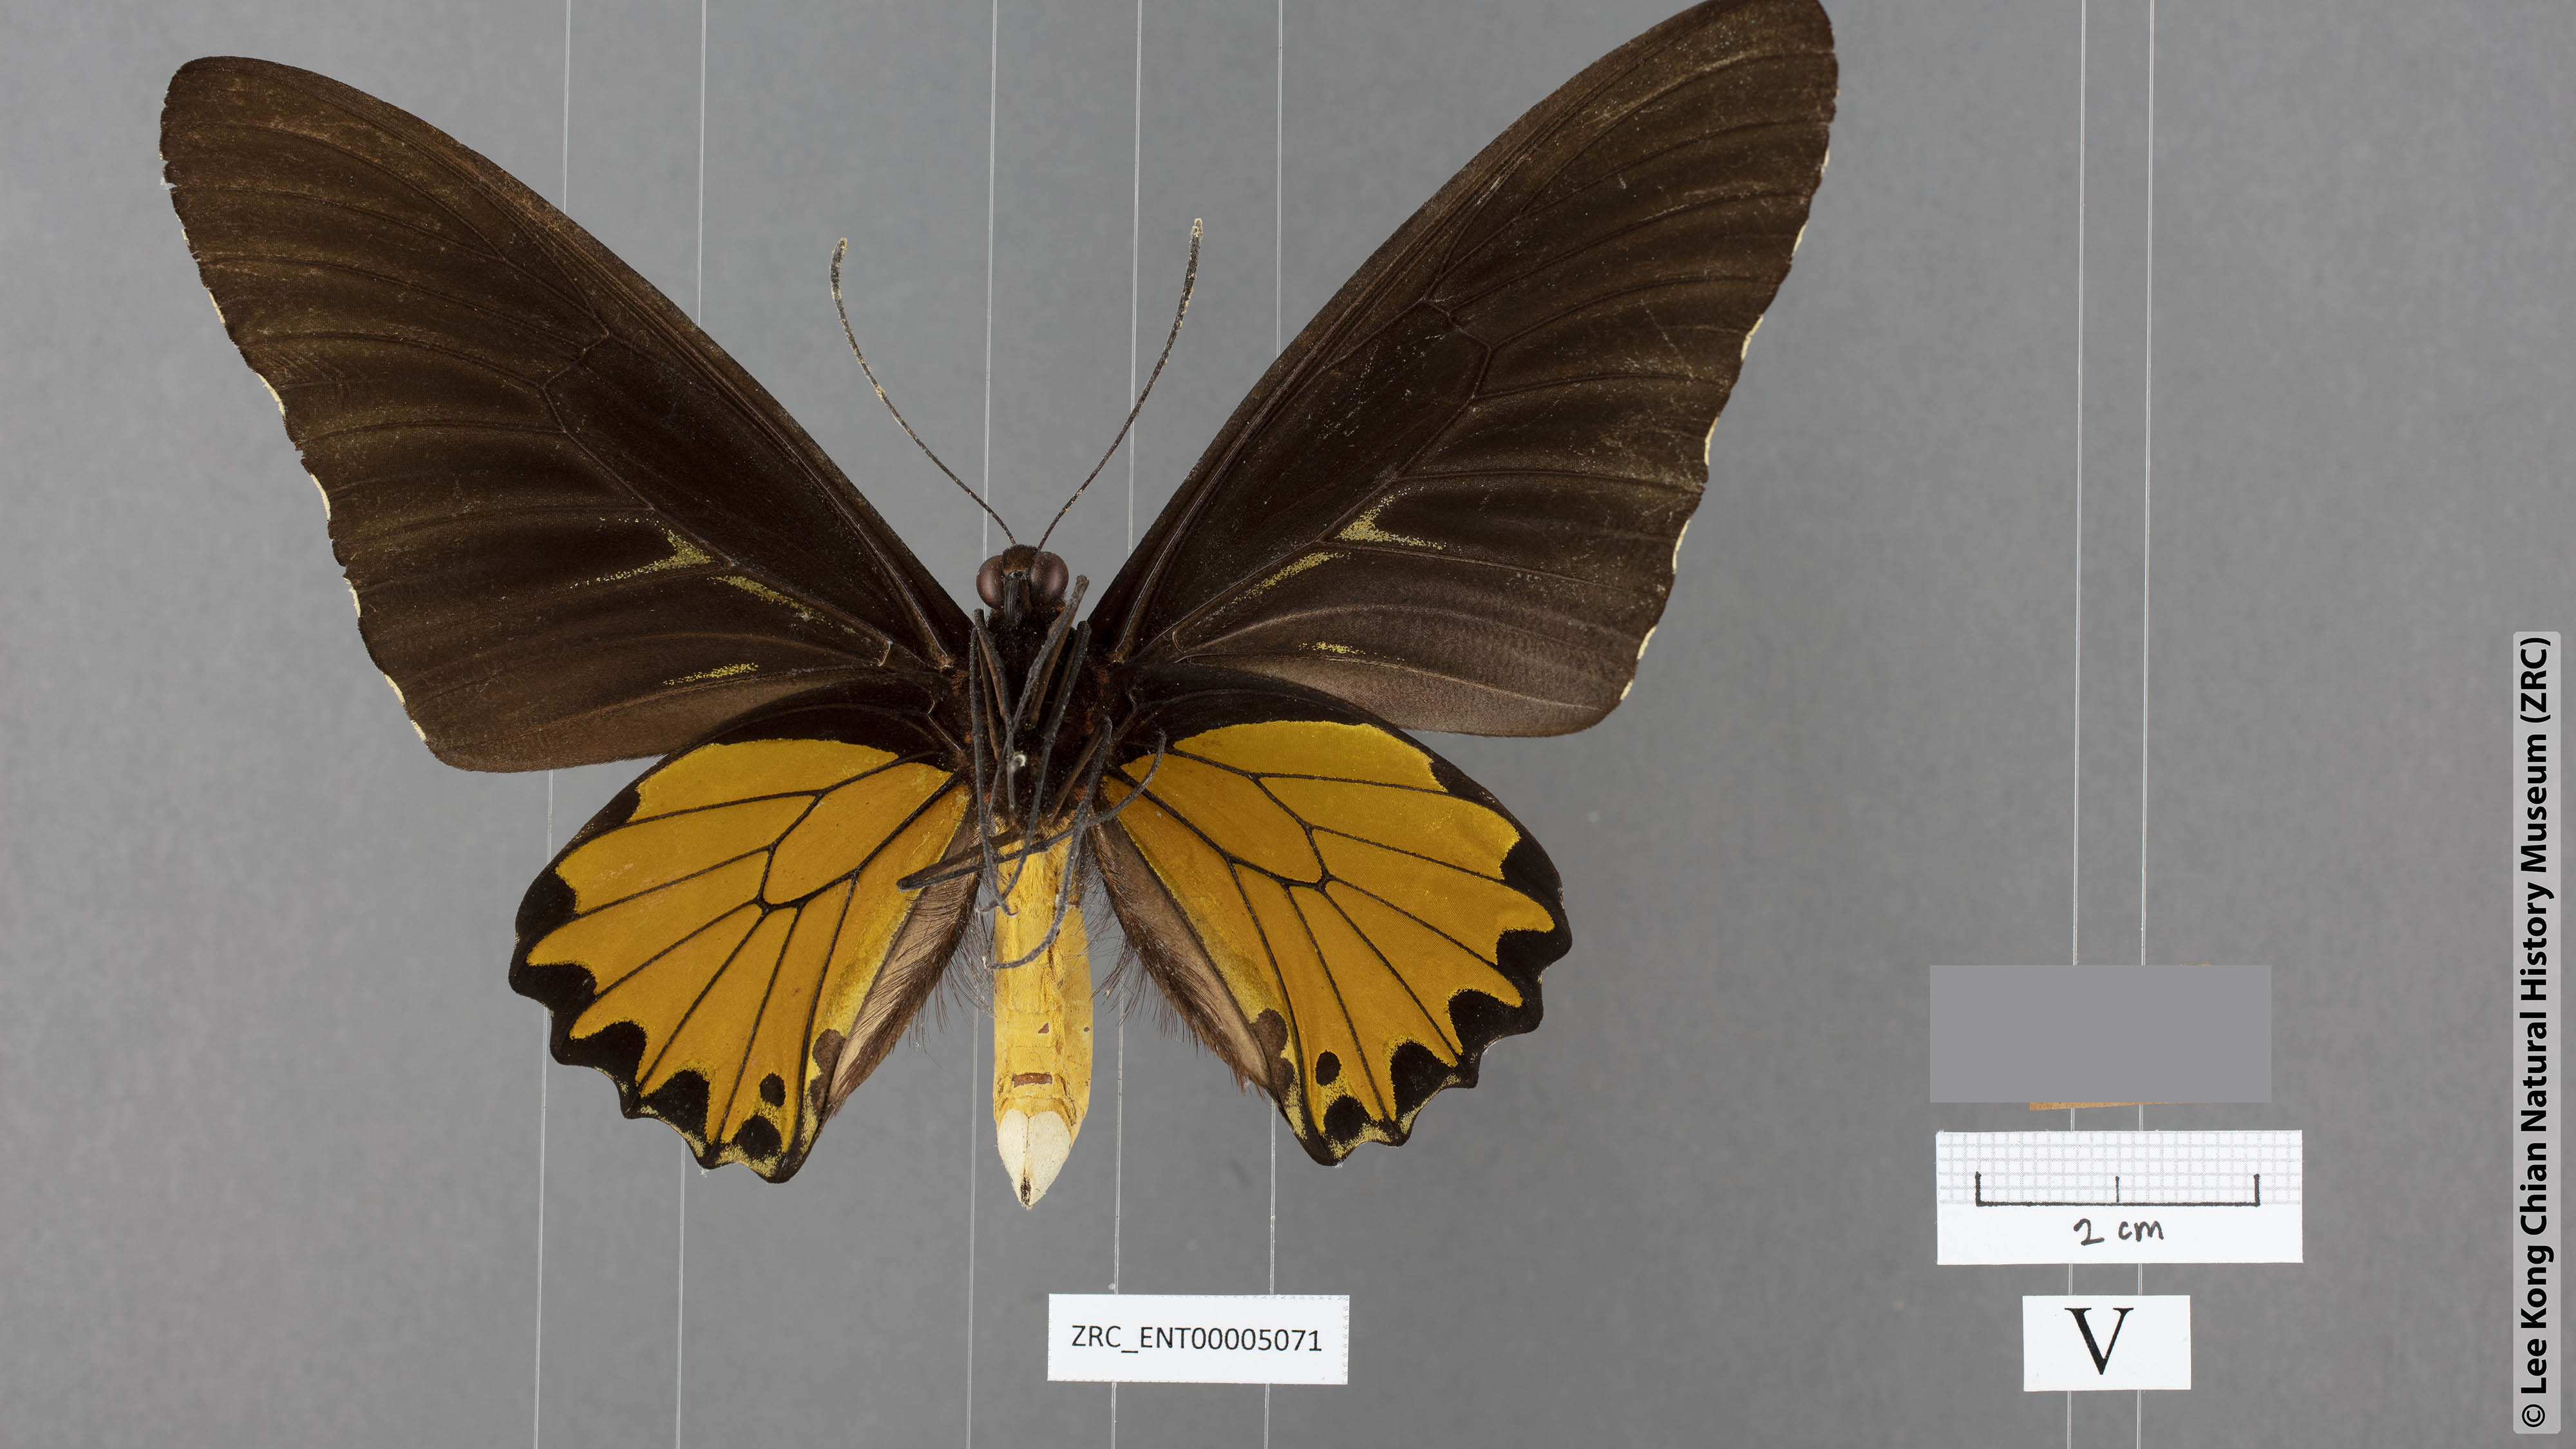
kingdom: Animalia
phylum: Arthropoda
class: Insecta
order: Lepidoptera
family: Papilionidae
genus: Troides
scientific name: Troides helena
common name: Common birdwing
